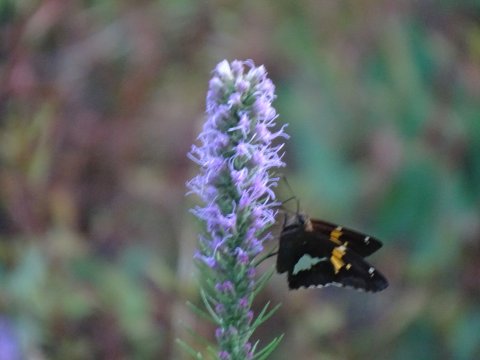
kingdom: Animalia
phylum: Arthropoda
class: Insecta
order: Lepidoptera
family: Hesperiidae
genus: Epargyreus
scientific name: Epargyreus clarus
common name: Silver-spotted Skipper
